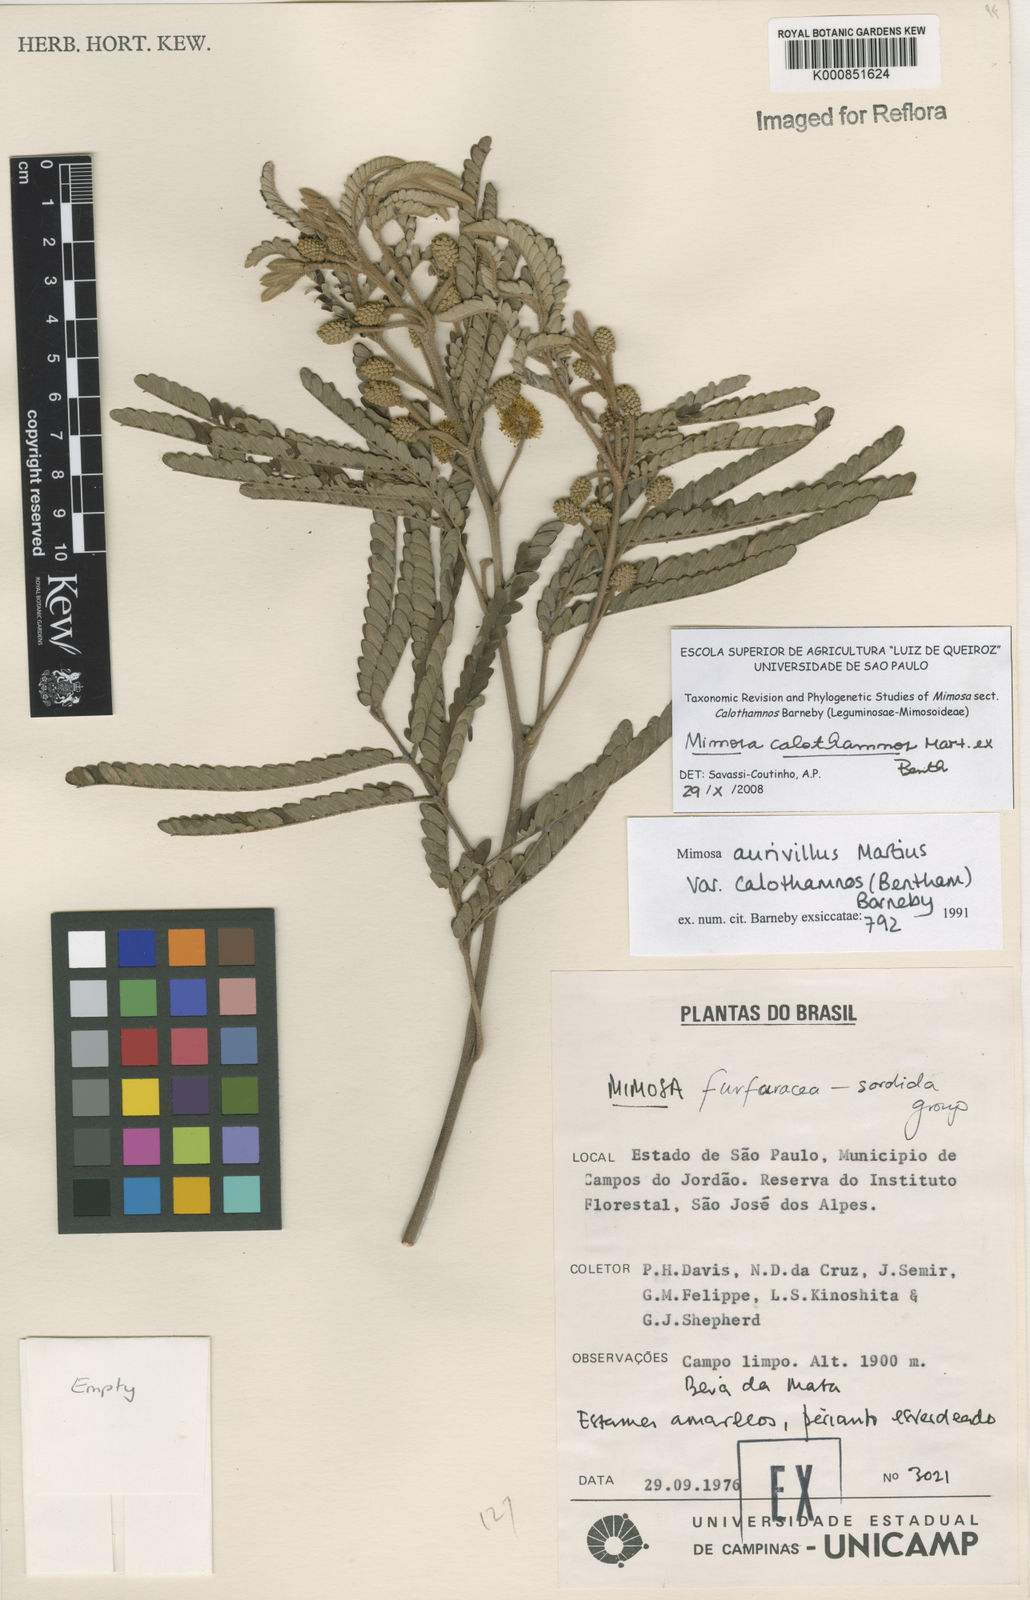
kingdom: Plantae
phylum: Tracheophyta
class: Magnoliopsida
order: Fabales
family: Fabaceae
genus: Mimosa
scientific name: Mimosa aurivillus
